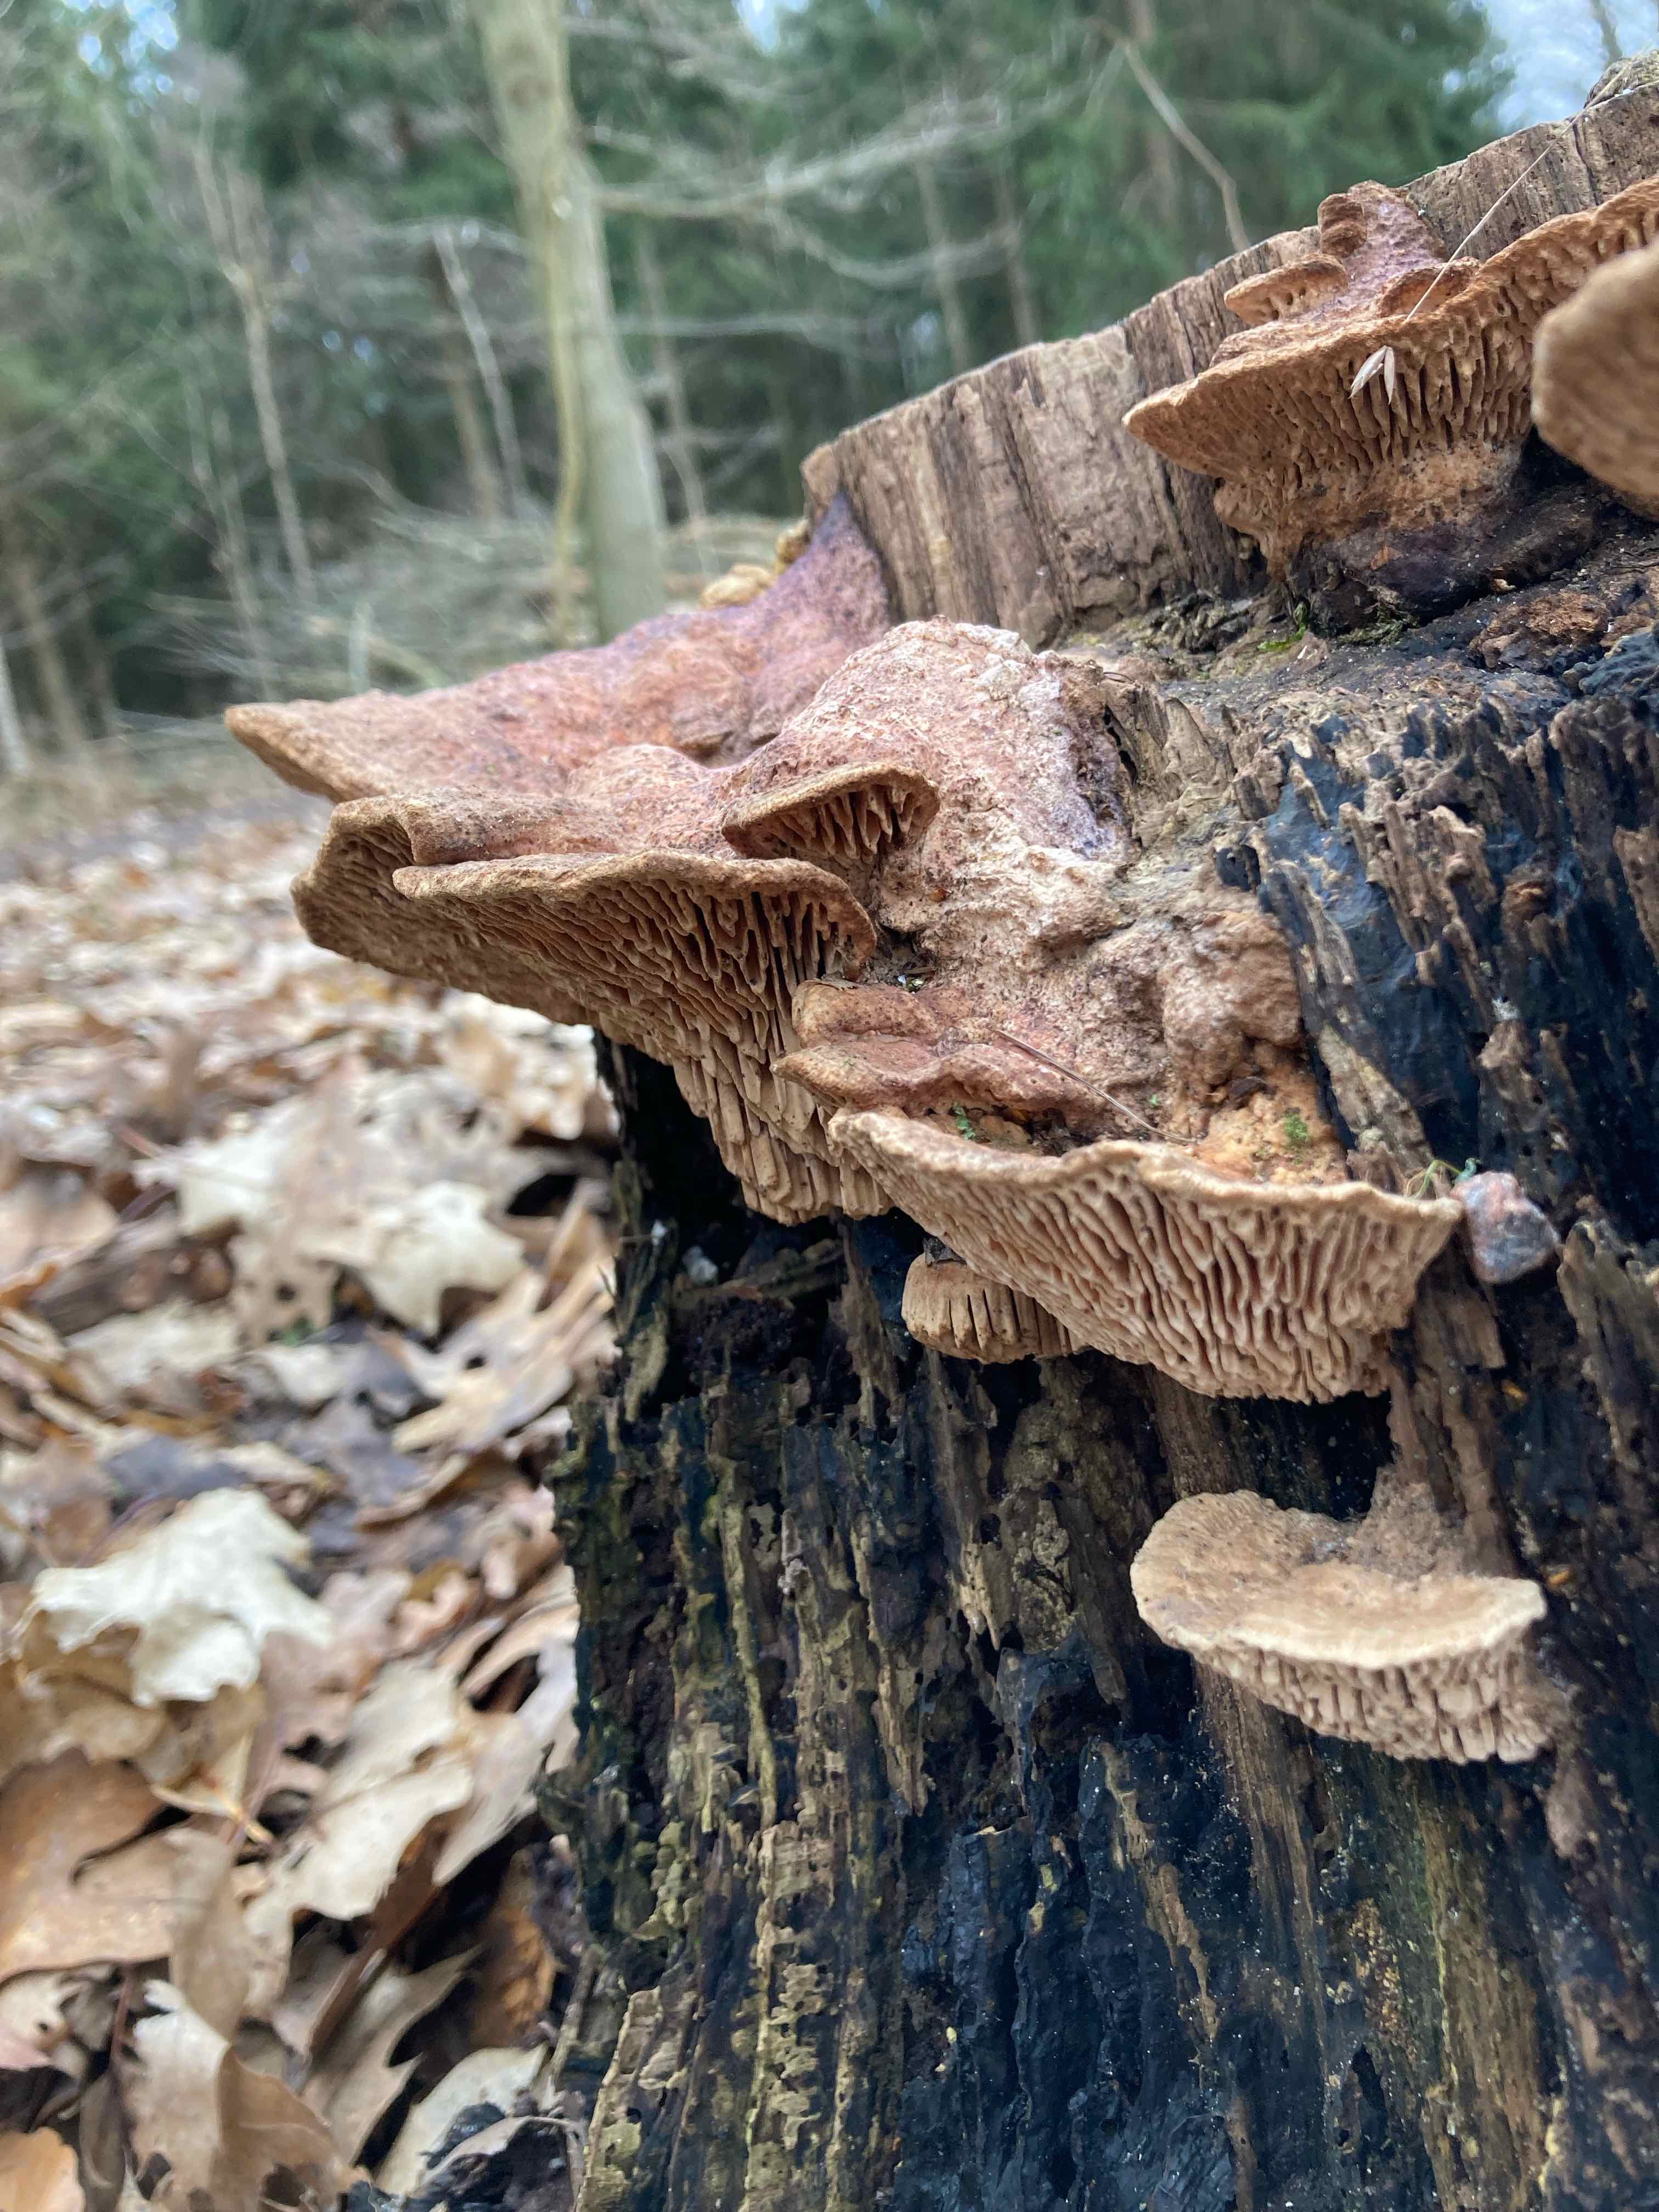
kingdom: Fungi
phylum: Basidiomycota
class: Agaricomycetes
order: Polyporales
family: Fomitopsidaceae
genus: Daedalea
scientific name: Daedalea quercina
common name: ege-labyrintsvamp
